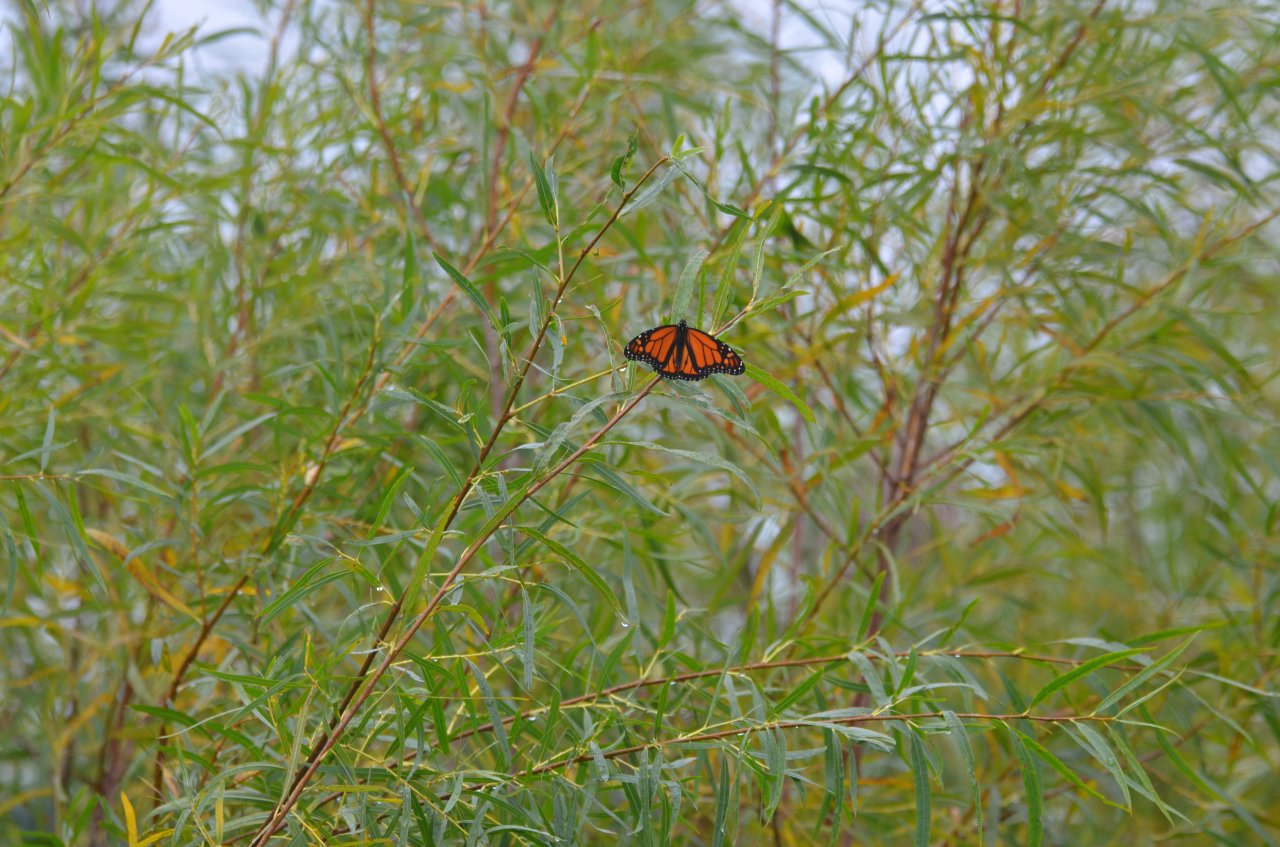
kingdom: Animalia
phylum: Arthropoda
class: Insecta
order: Lepidoptera
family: Nymphalidae
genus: Danaus
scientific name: Danaus plexippus
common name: Monarch
